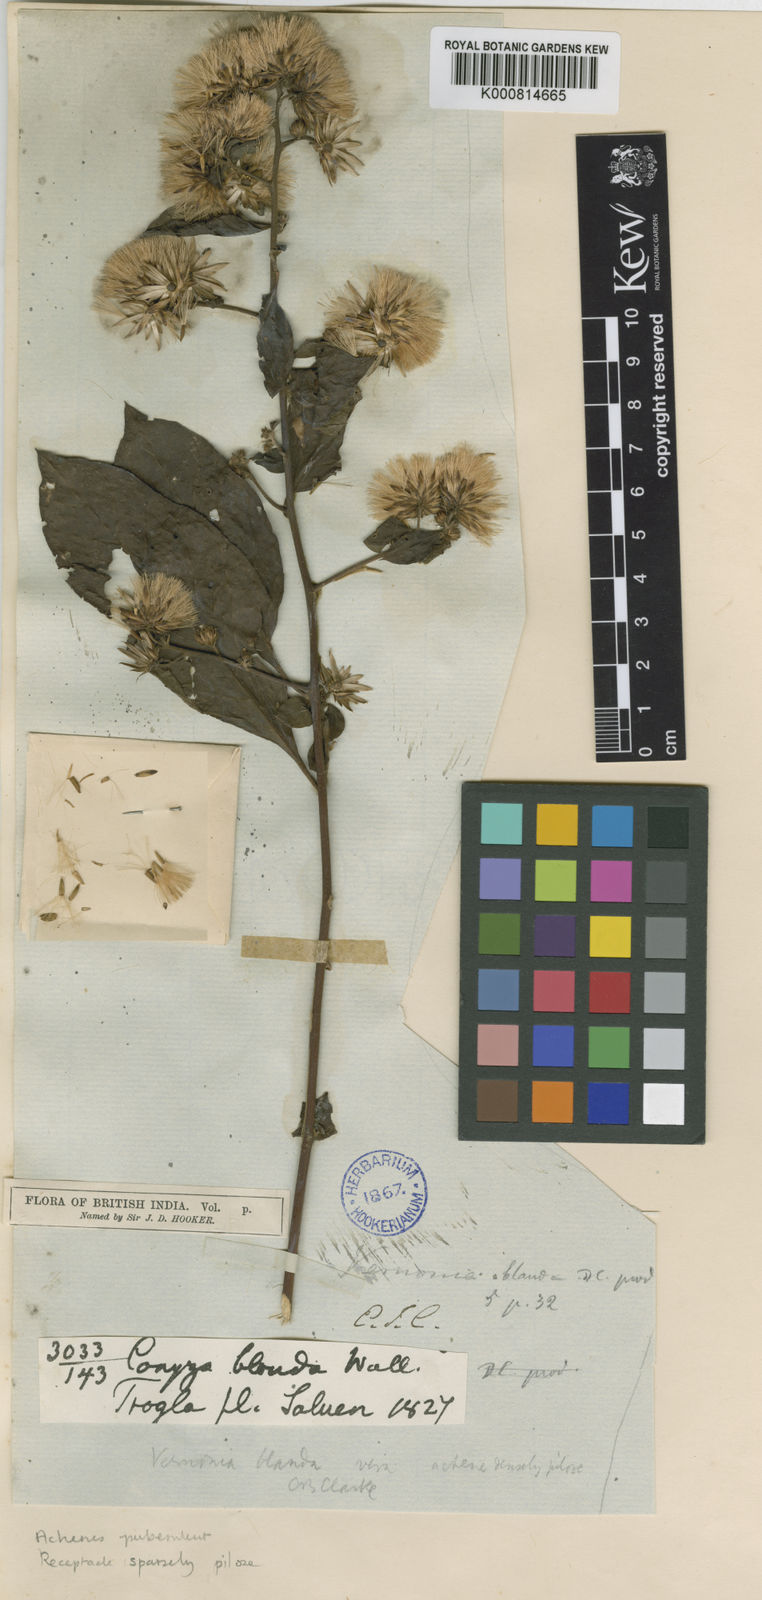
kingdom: Plantae
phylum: Tracheophyta
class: Magnoliopsida
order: Asterales
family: Asteraceae
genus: Decaneuropsis
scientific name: Decaneuropsis blanda
